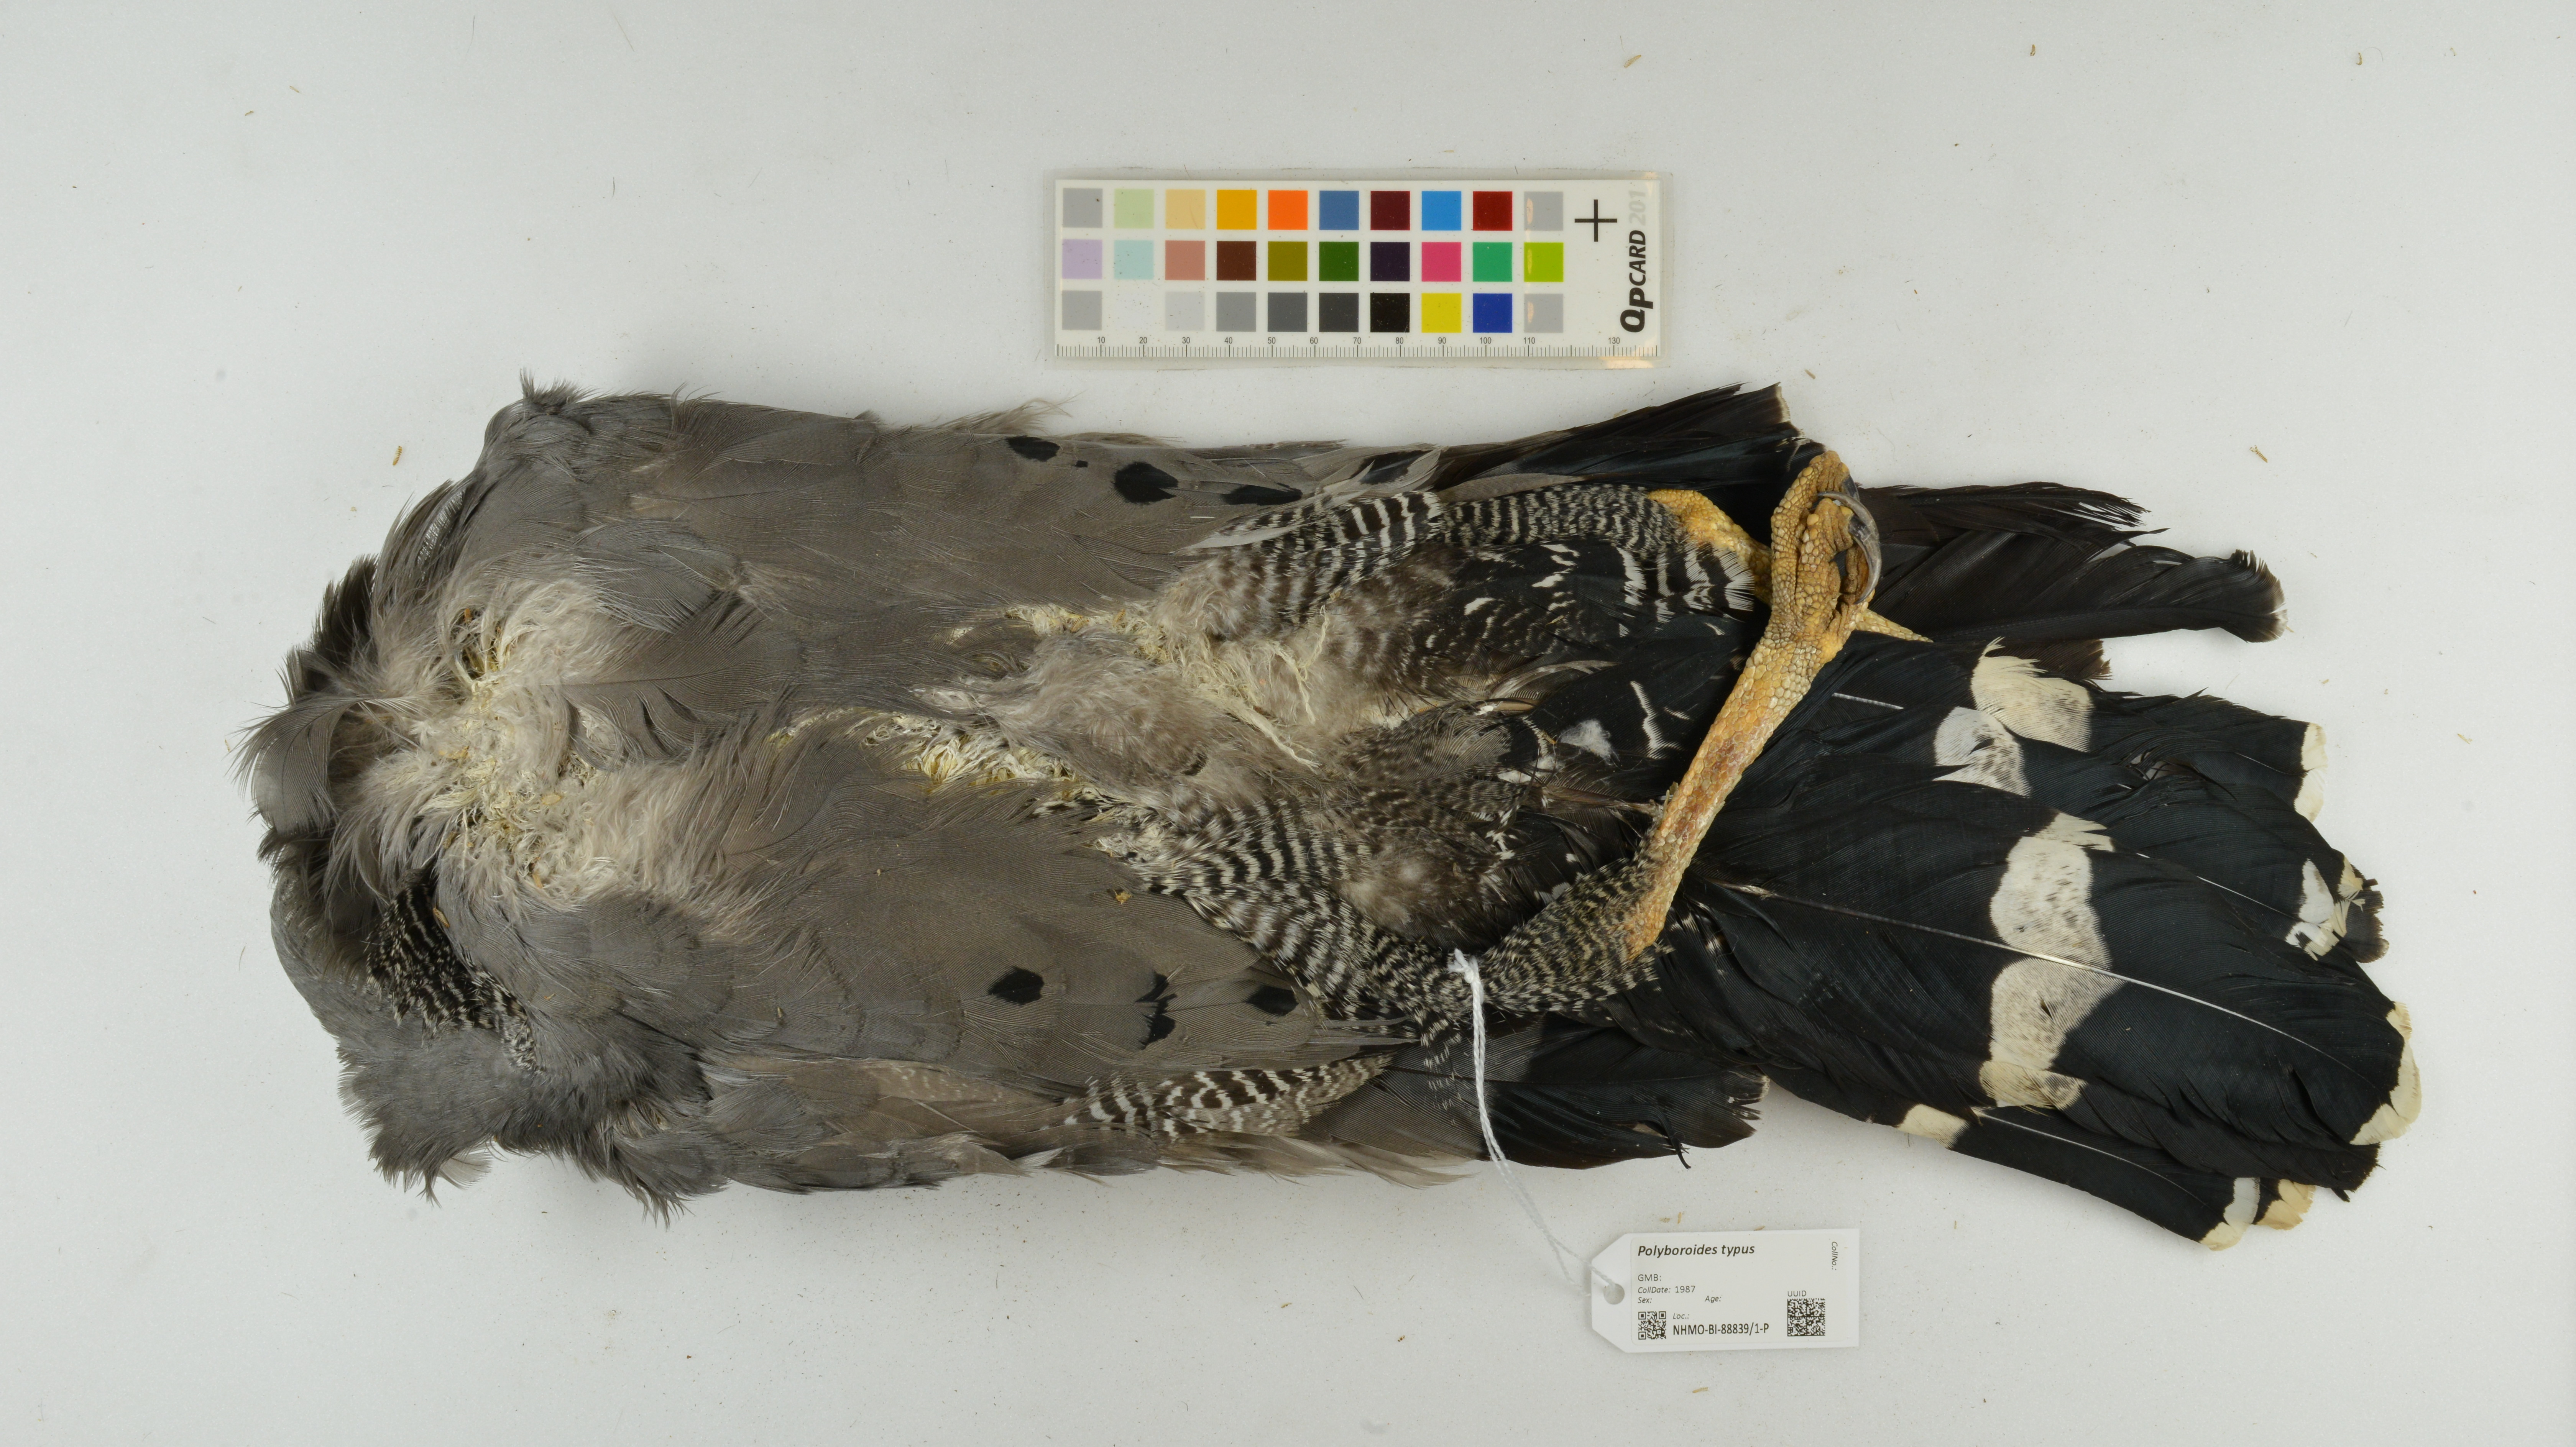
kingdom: Animalia
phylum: Chordata
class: Aves
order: Accipitriformes
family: Accipitridae
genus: Polyboroides
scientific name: Polyboroides typus
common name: African harrier-hawk
